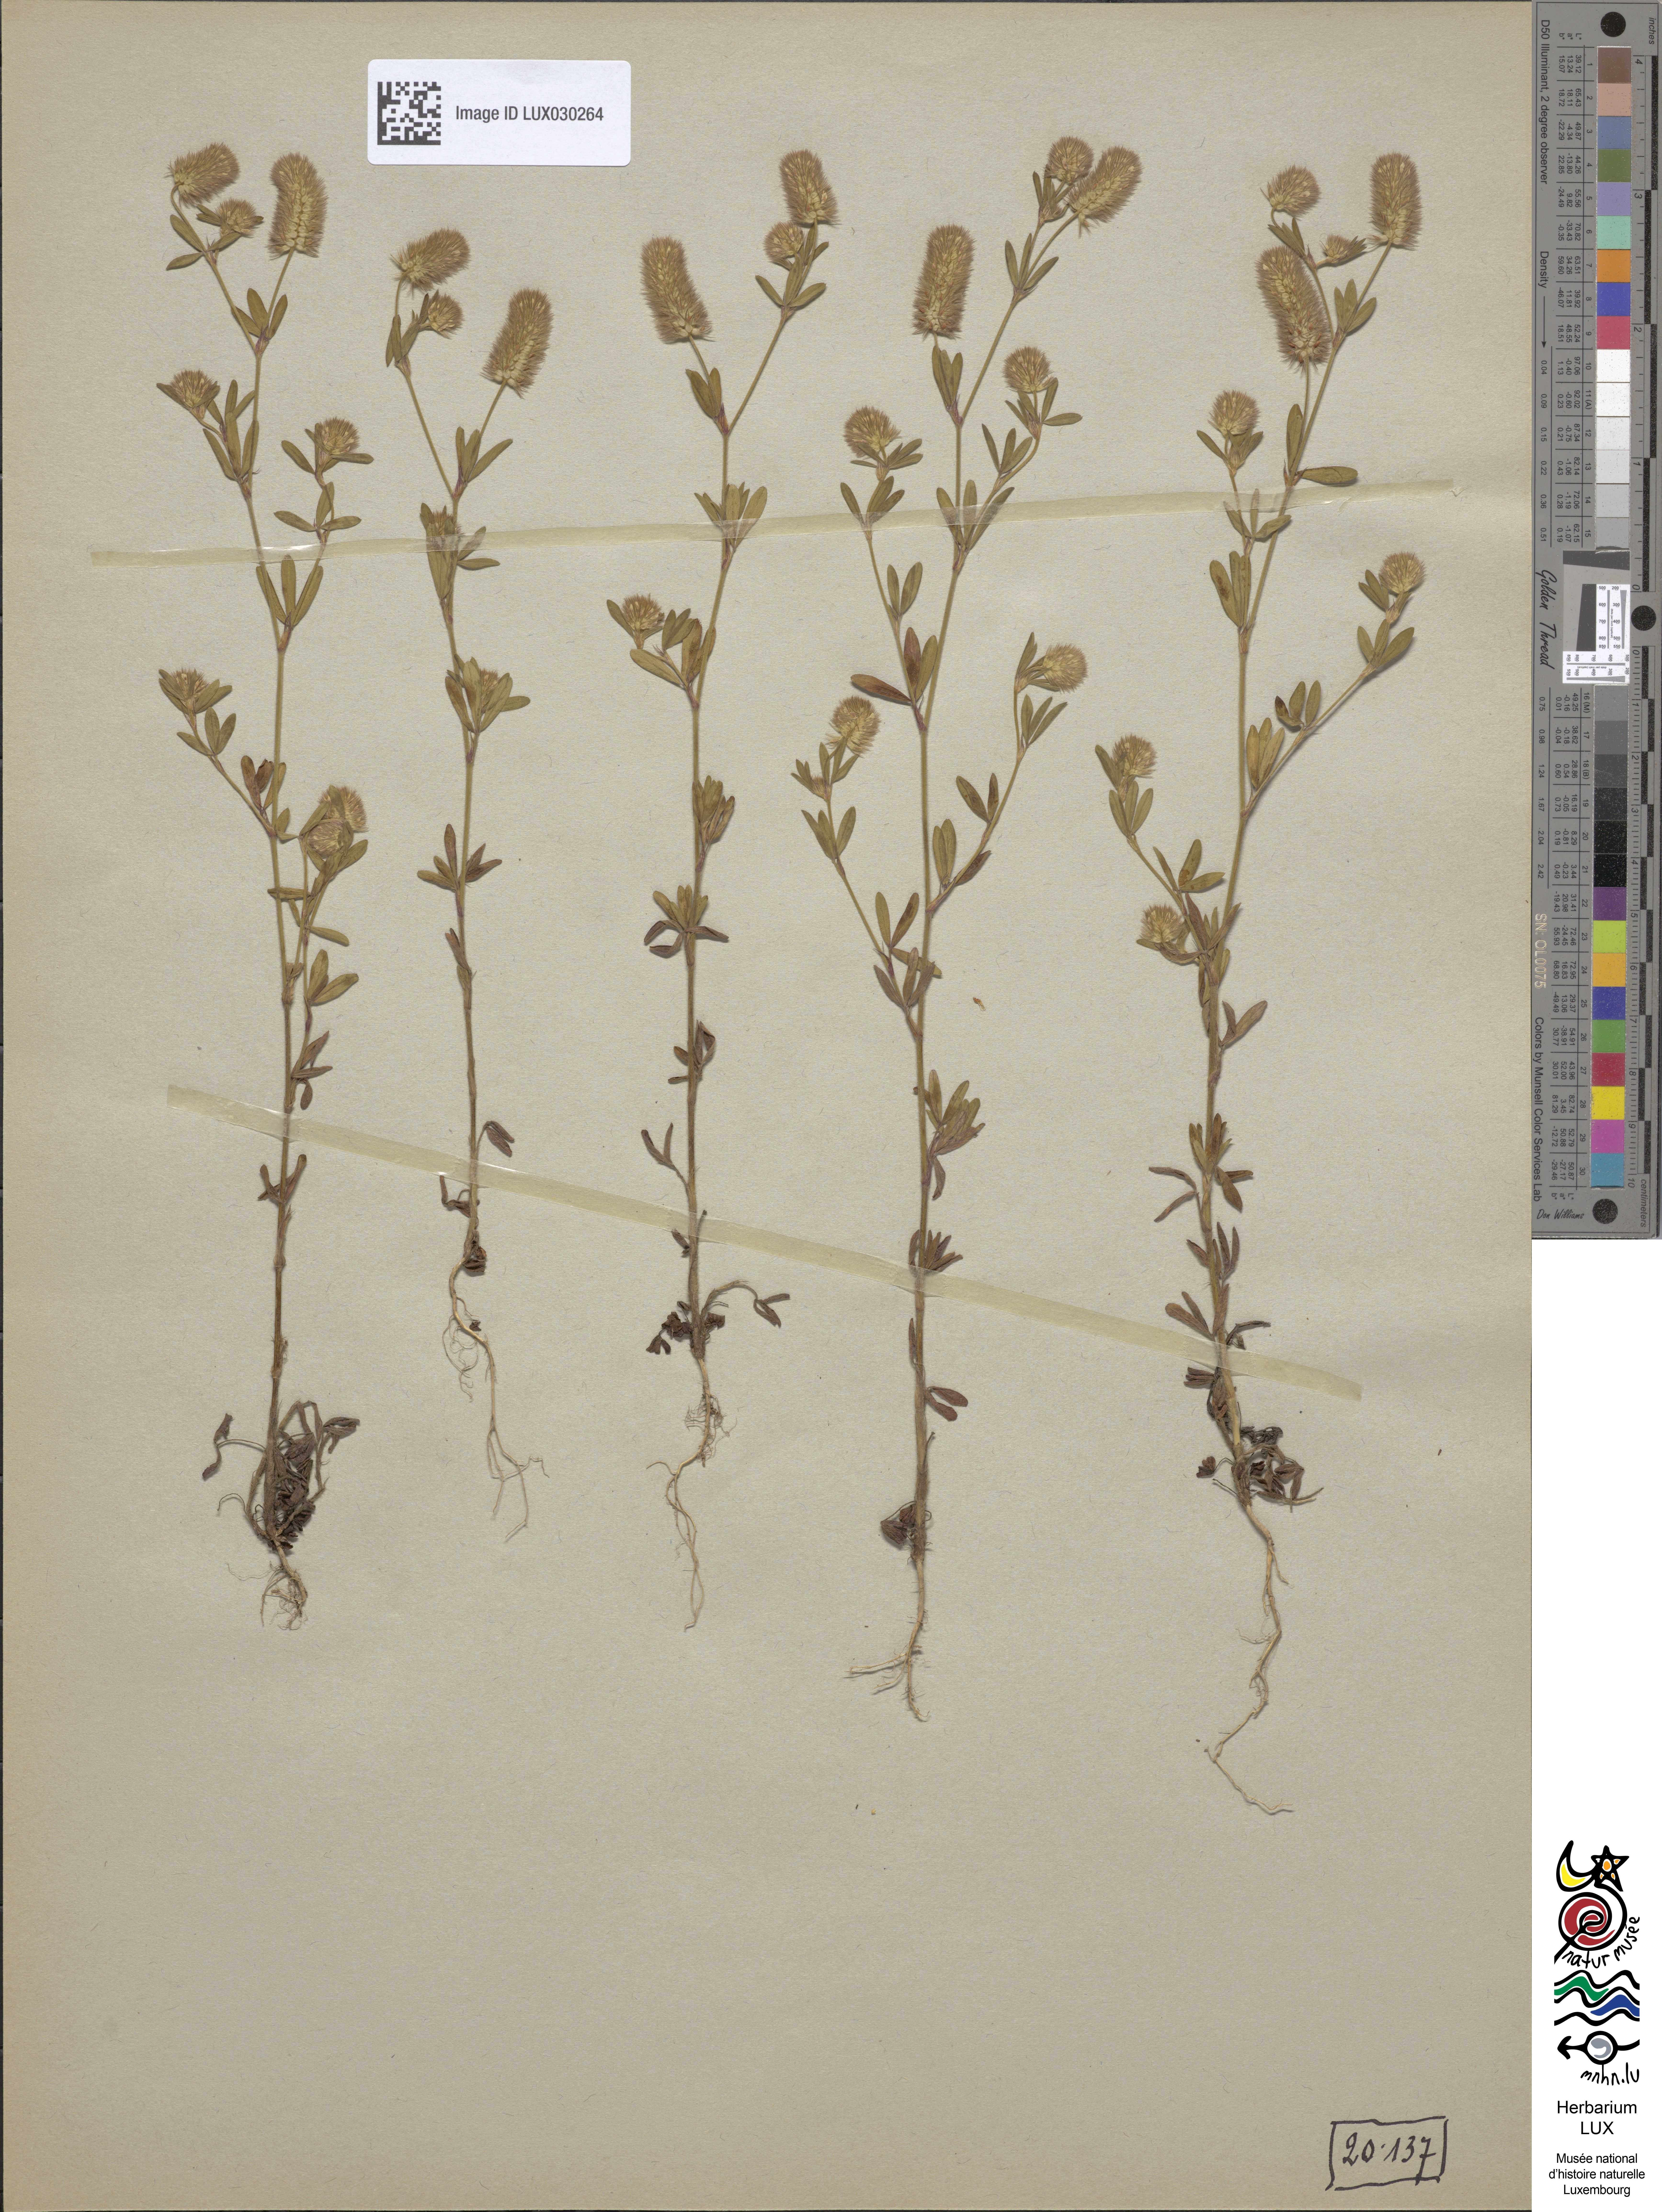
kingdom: Plantae
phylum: Tracheophyta
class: Magnoliopsida
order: Fabales
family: Fabaceae
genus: Trifolium
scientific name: Trifolium arvense
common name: Hare's-foot clover
